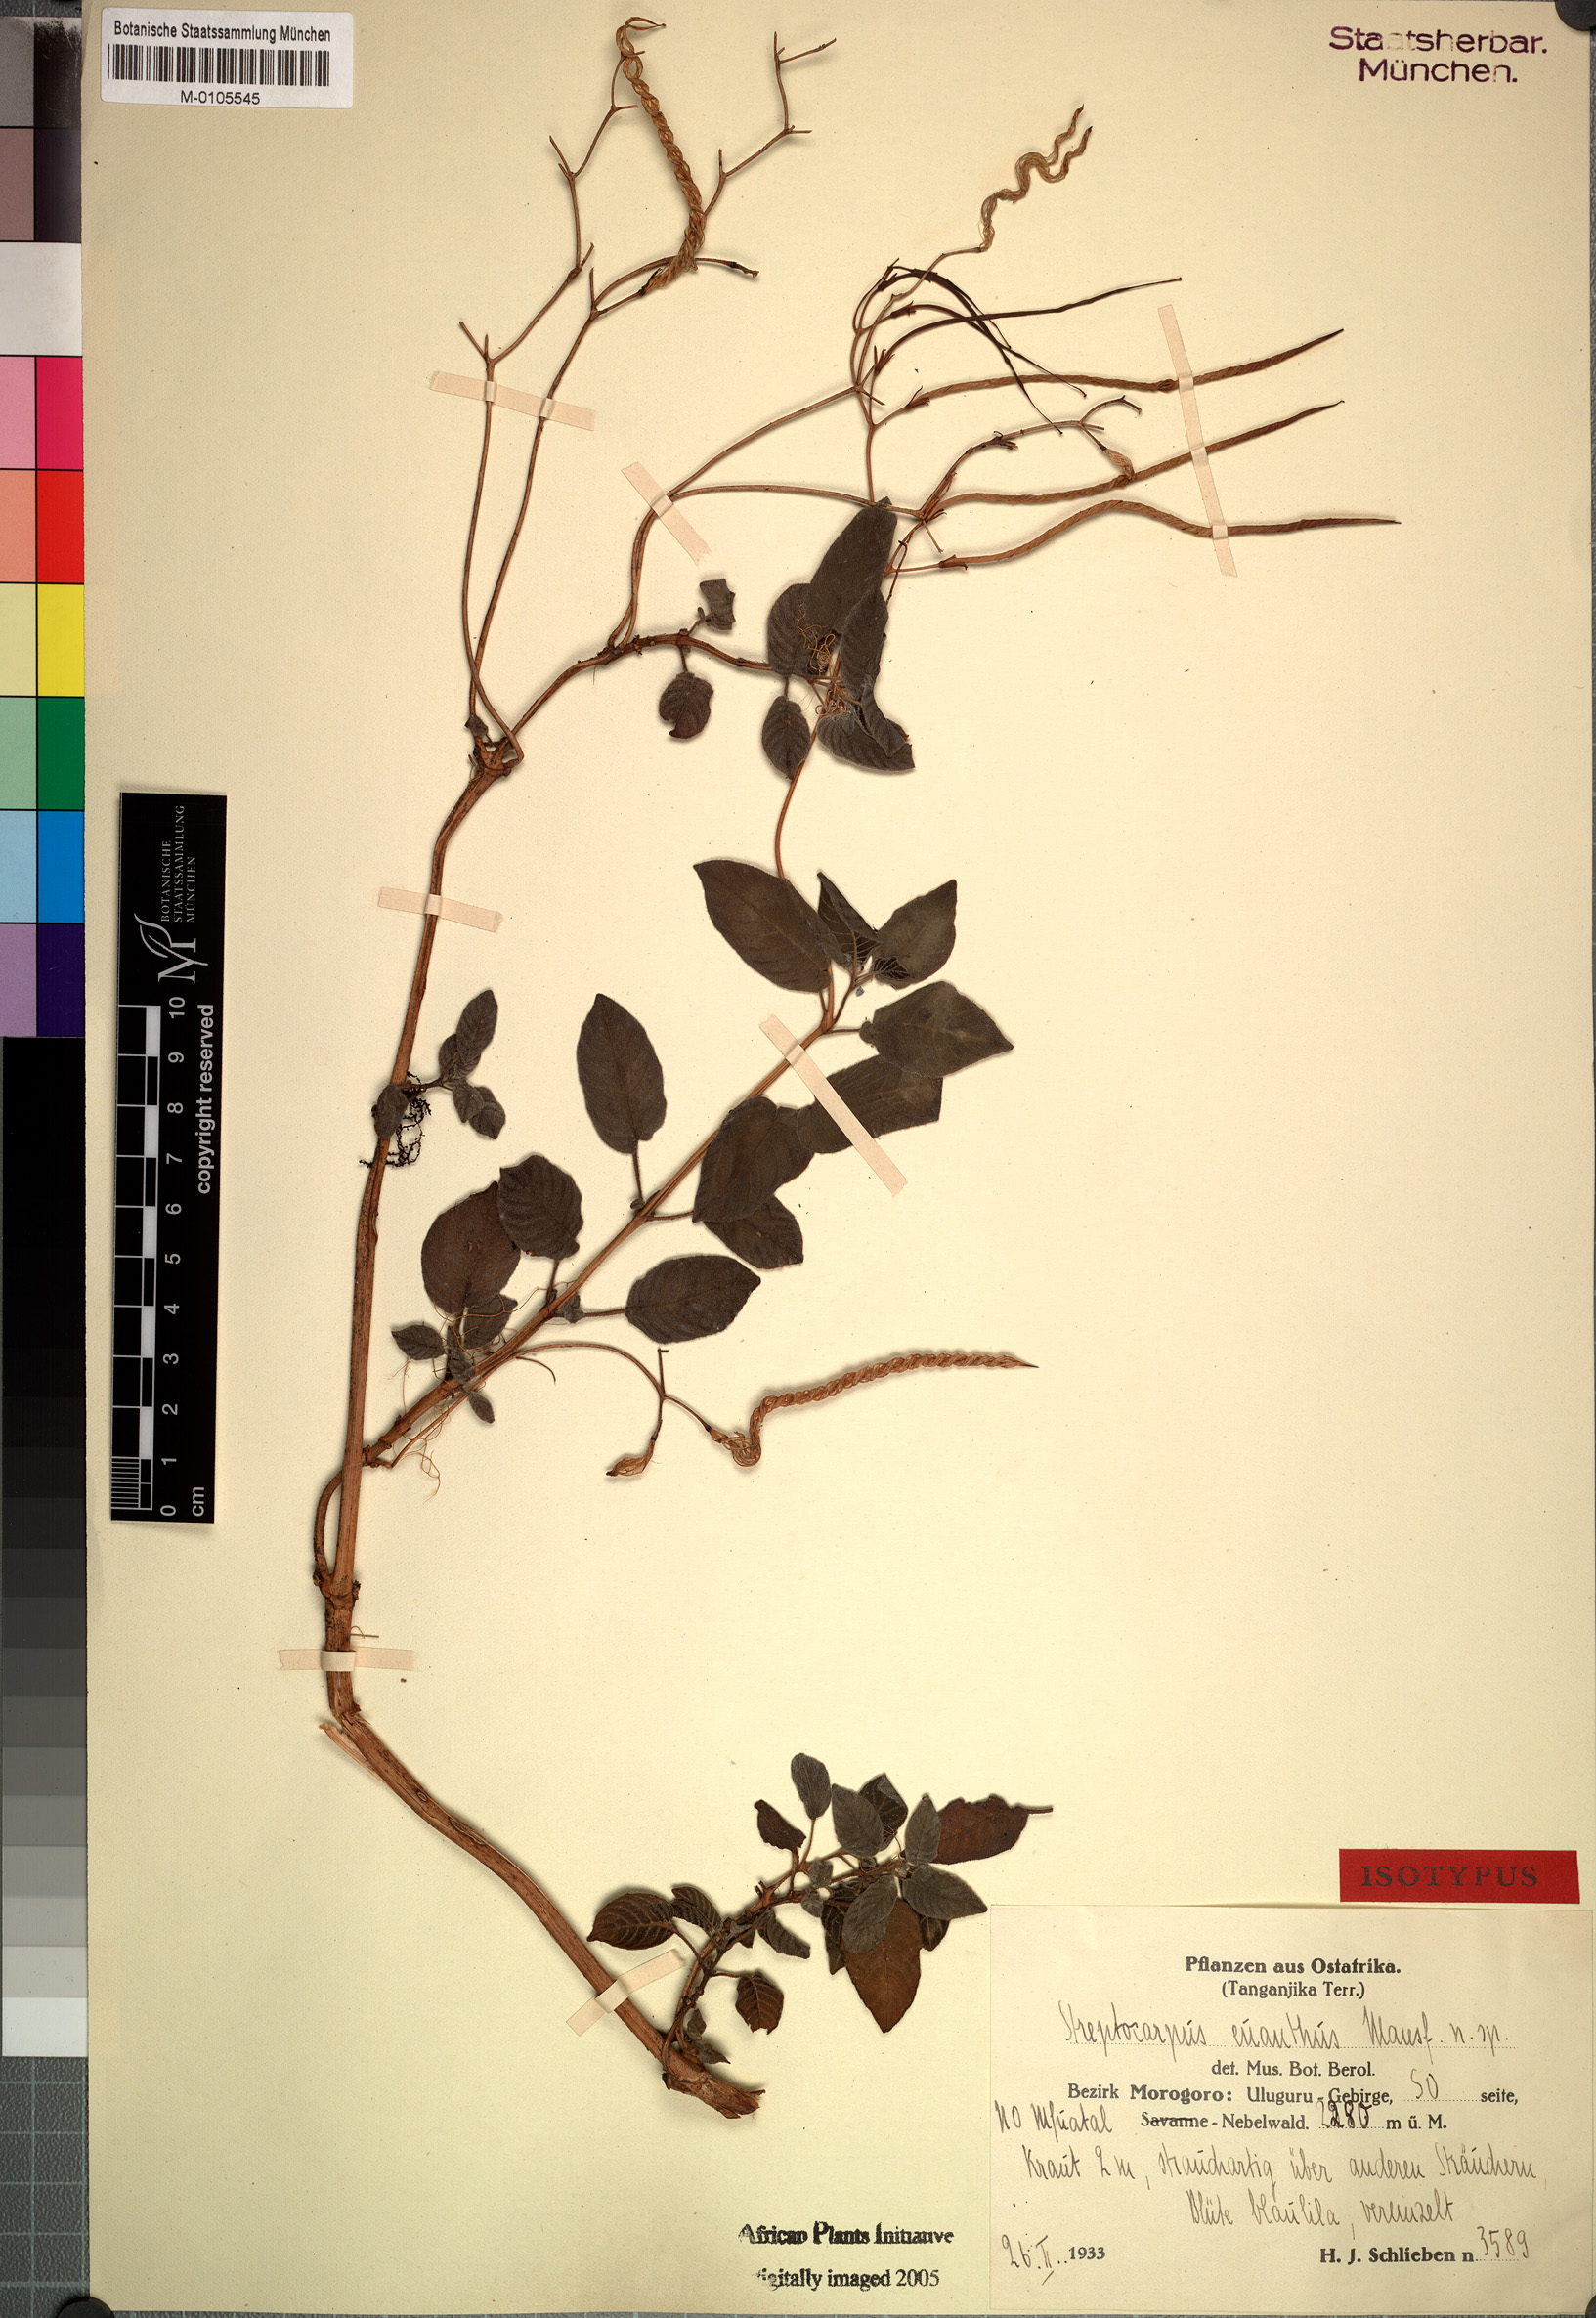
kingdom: Plantae
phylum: Tracheophyta
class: Magnoliopsida
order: Lamiales
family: Gesneriaceae
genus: Streptocarpus
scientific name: Streptocarpus euanthus
